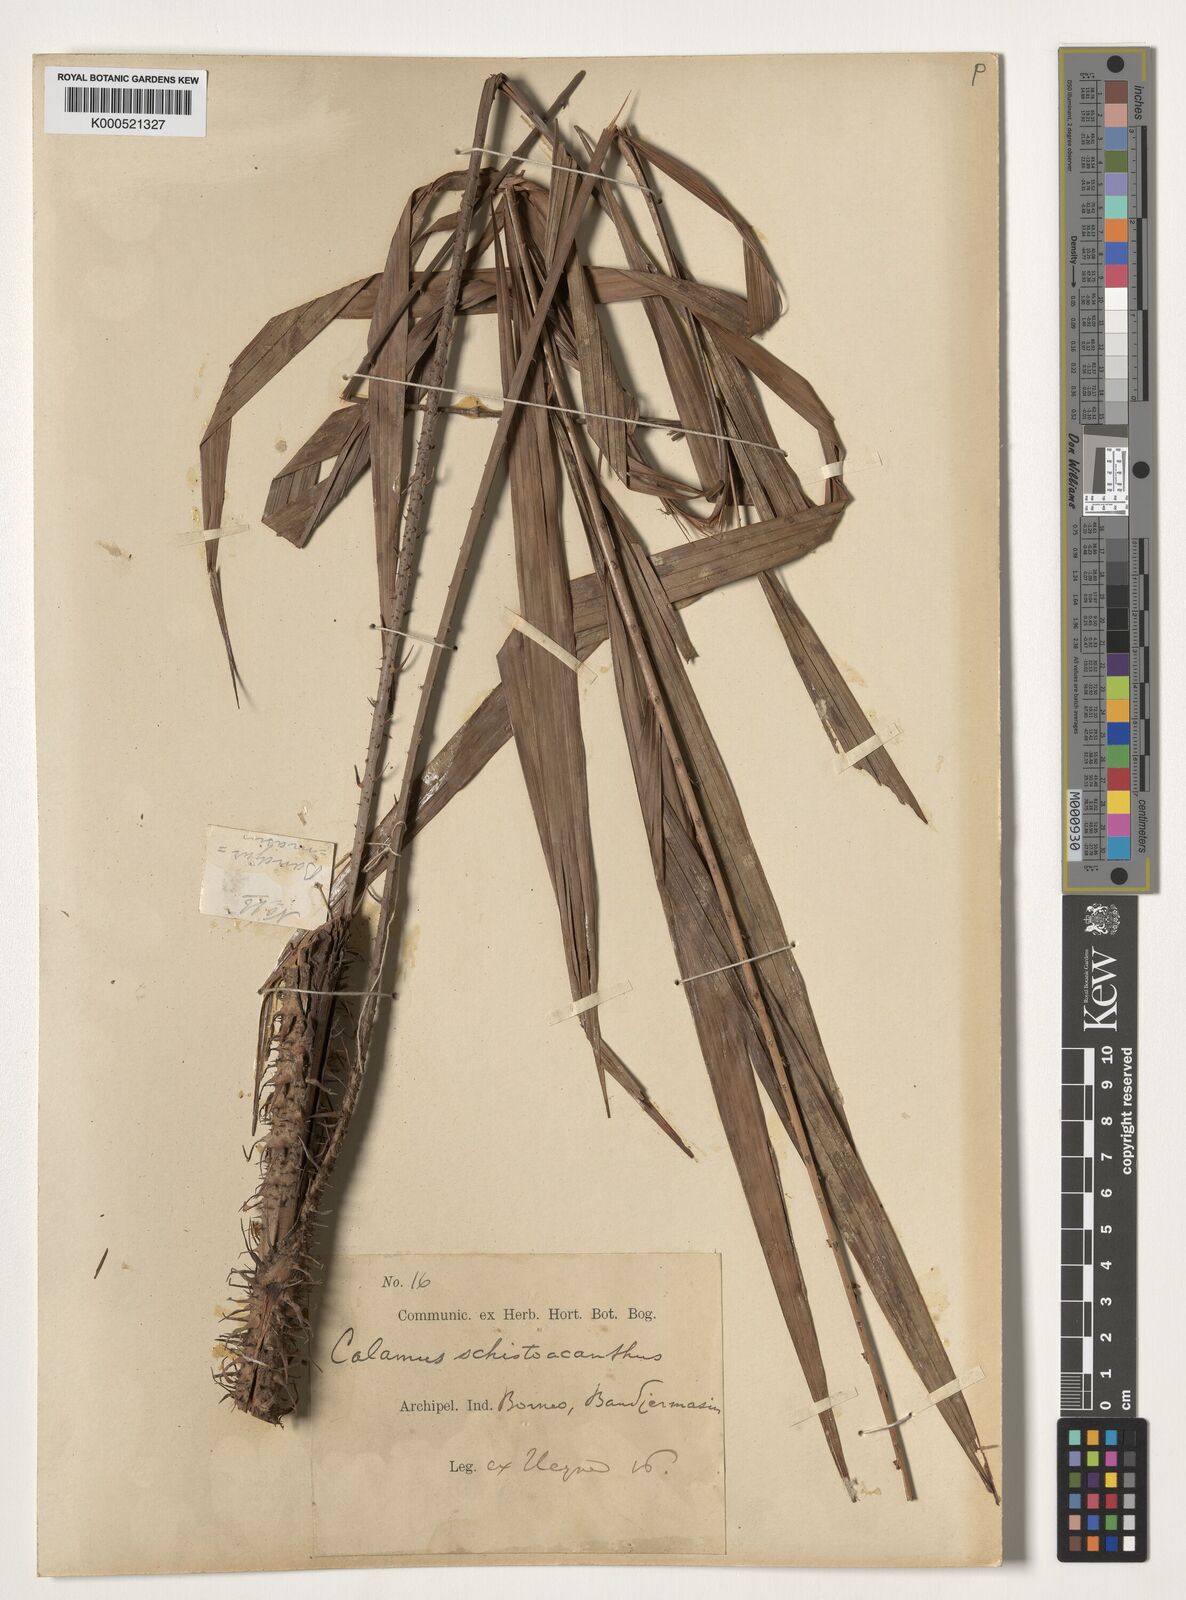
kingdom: Plantae
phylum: Tracheophyta
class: Liliopsida
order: Arecales
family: Arecaceae
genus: Calamus
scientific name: Calamus schistoacanthus
